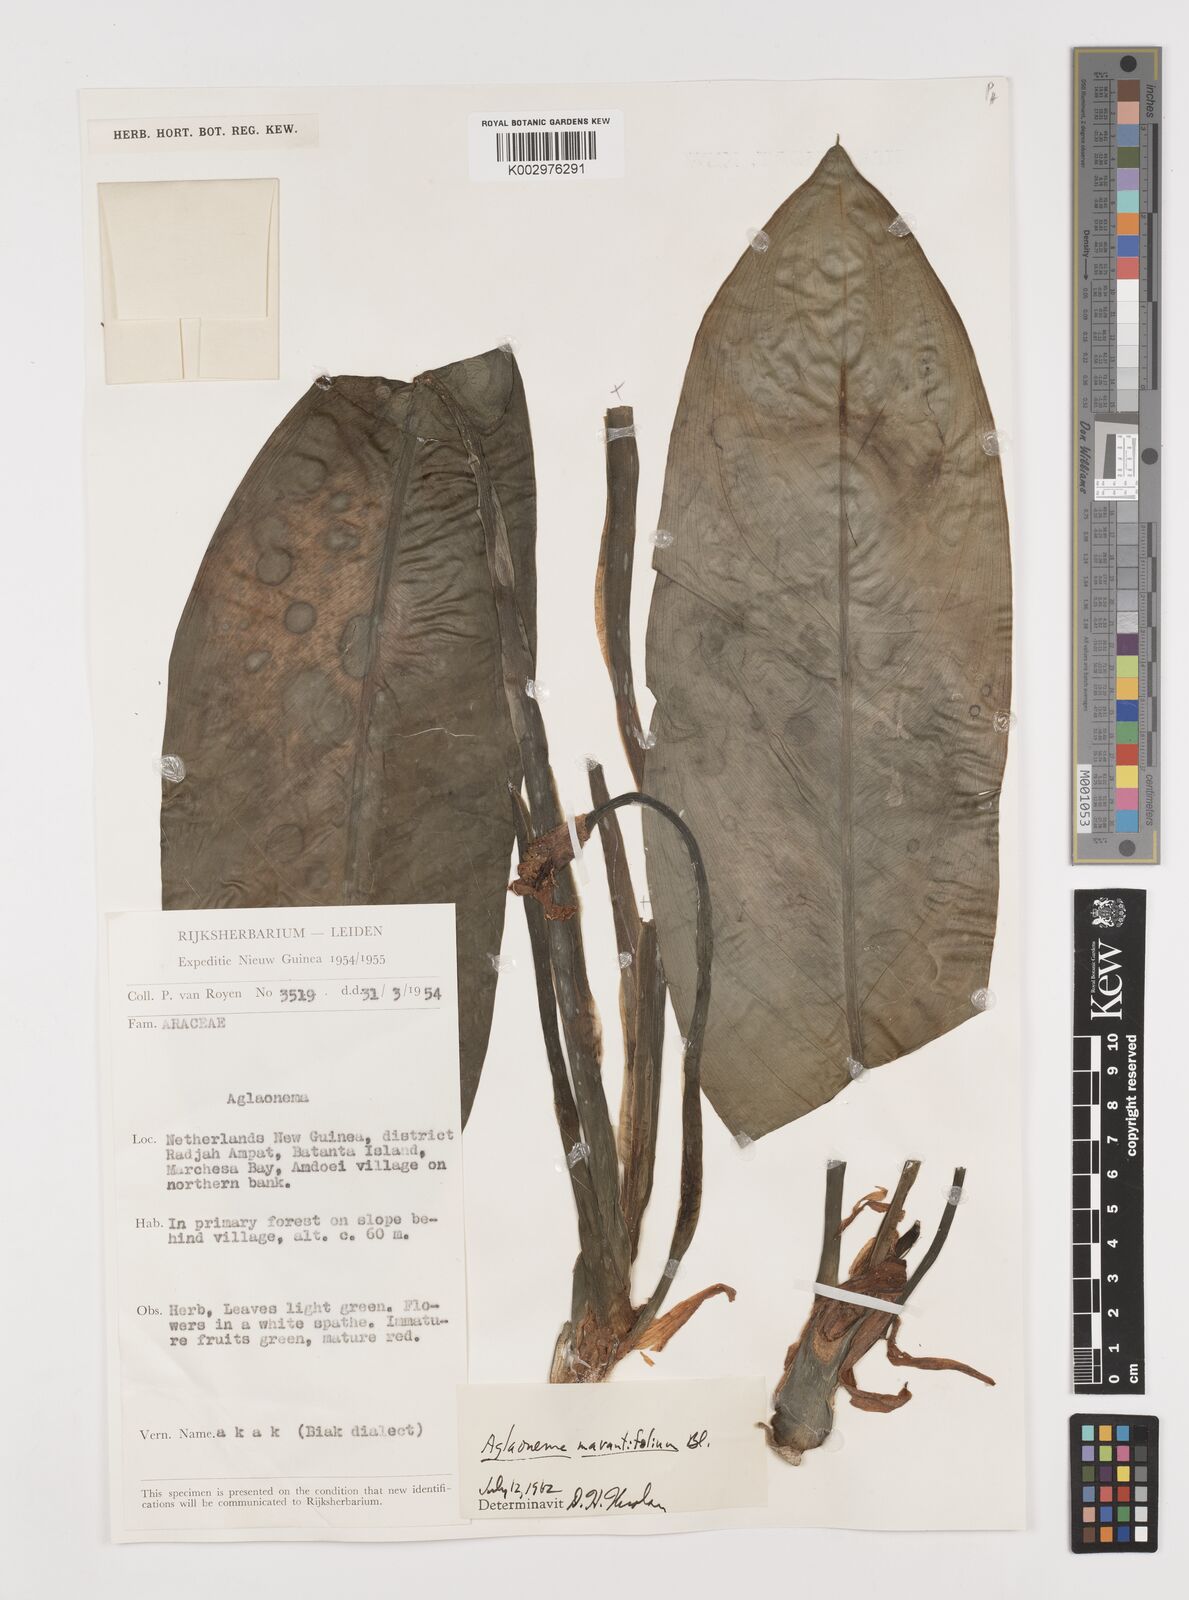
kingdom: Plantae
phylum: Tracheophyta
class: Liliopsida
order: Alismatales
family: Araceae
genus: Aglaonema
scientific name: Aglaonema marantifolium
